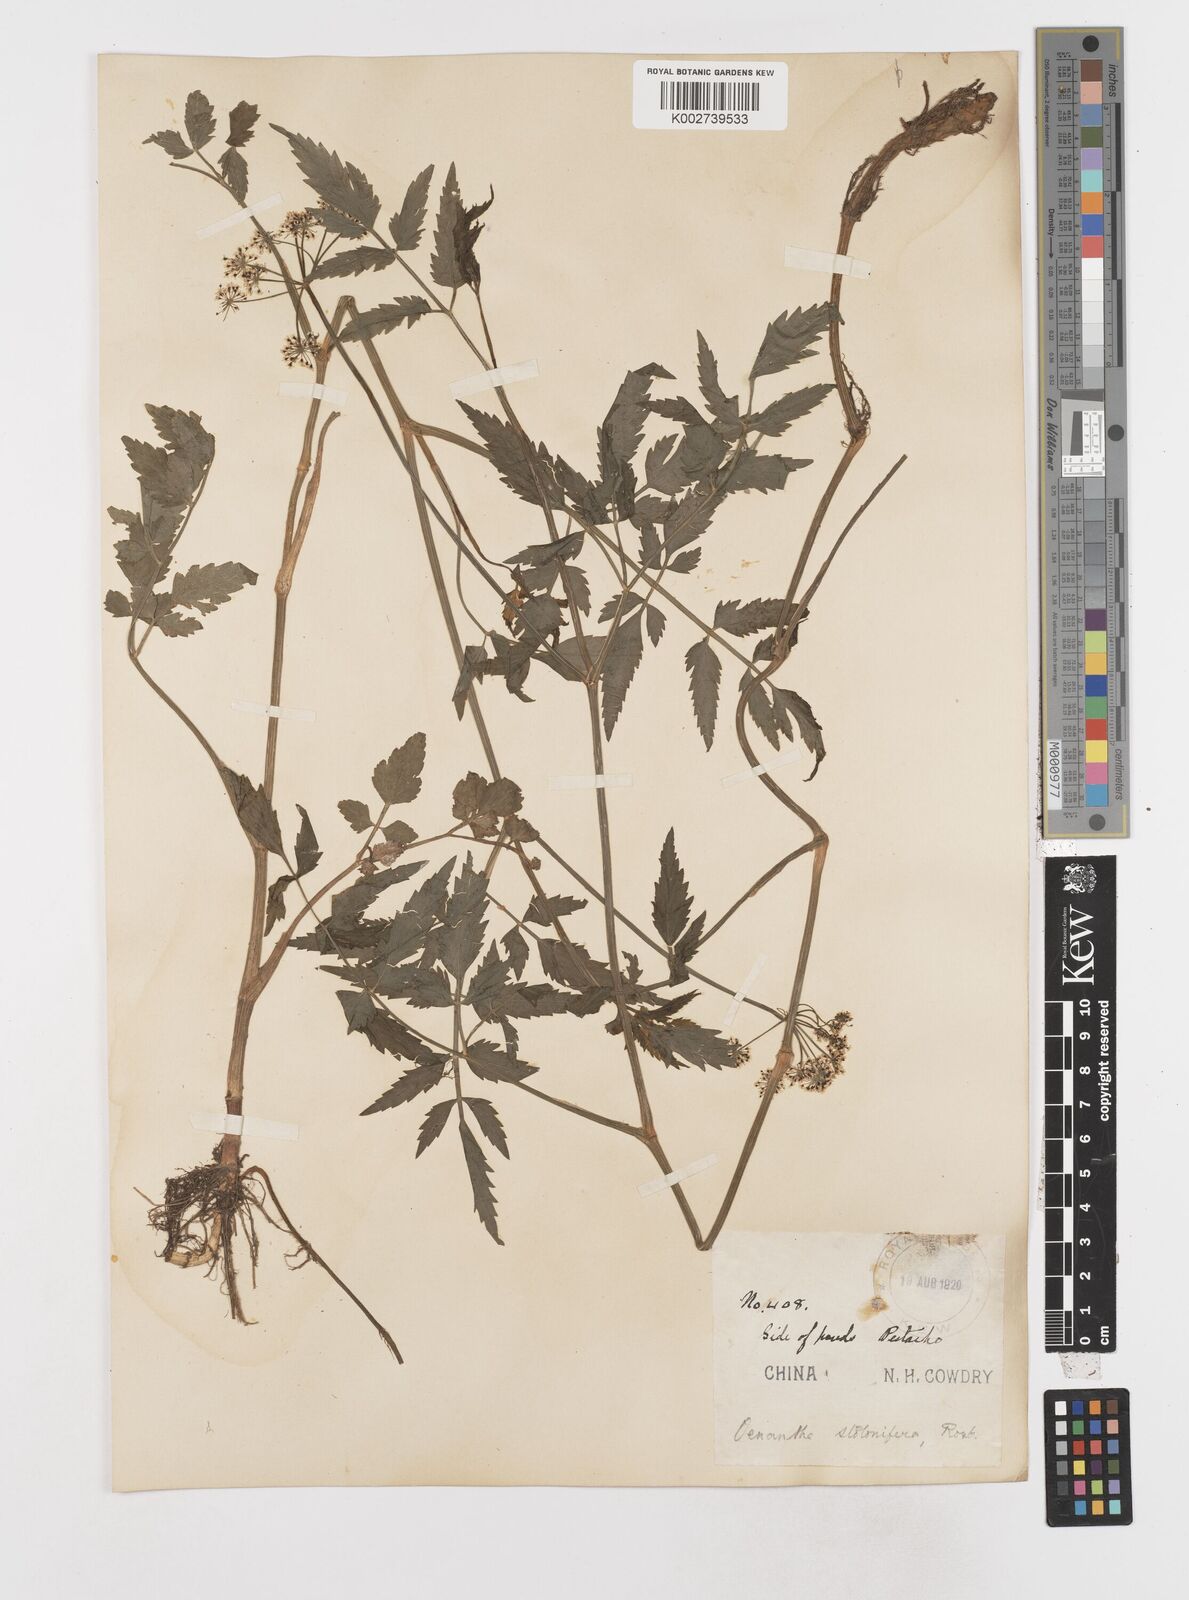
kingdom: Plantae
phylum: Tracheophyta
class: Magnoliopsida
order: Apiales
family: Apiaceae
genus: Oenanthe
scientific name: Oenanthe javanica
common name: Java water-dropwort
